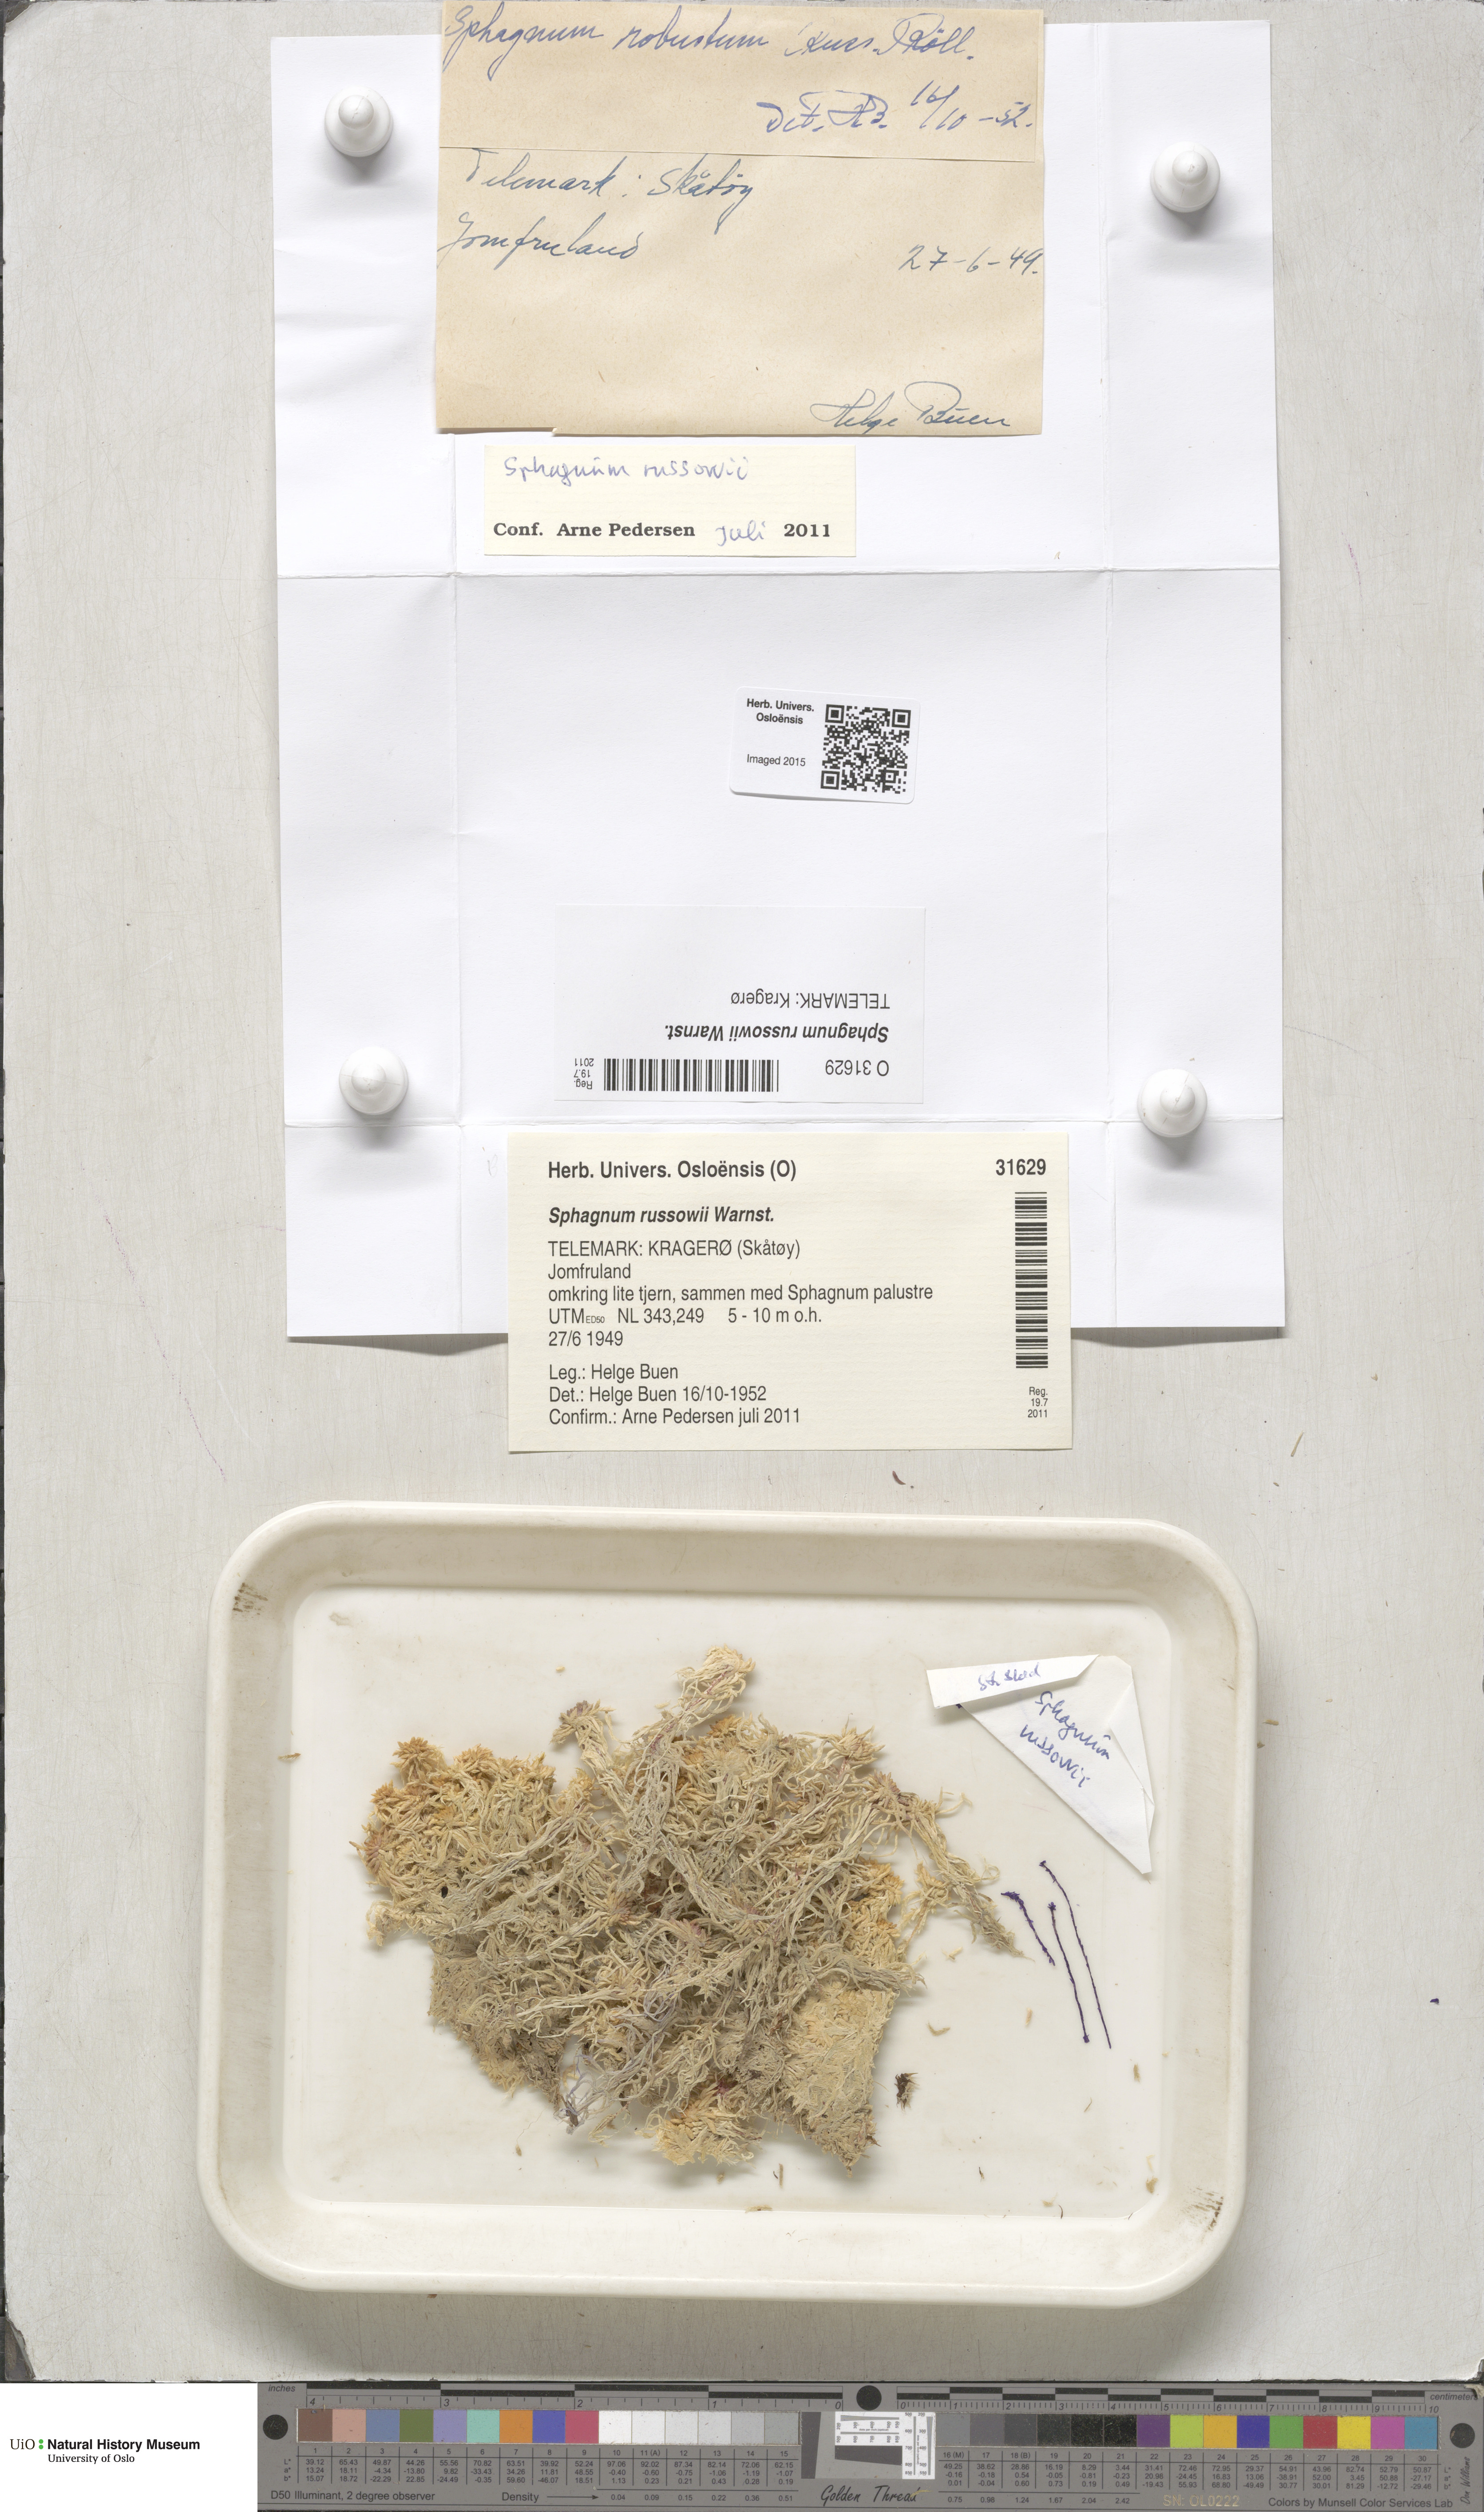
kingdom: Plantae
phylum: Bryophyta
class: Sphagnopsida
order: Sphagnales
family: Sphagnaceae
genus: Sphagnum
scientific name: Sphagnum russowii
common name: Russow's peat moss
